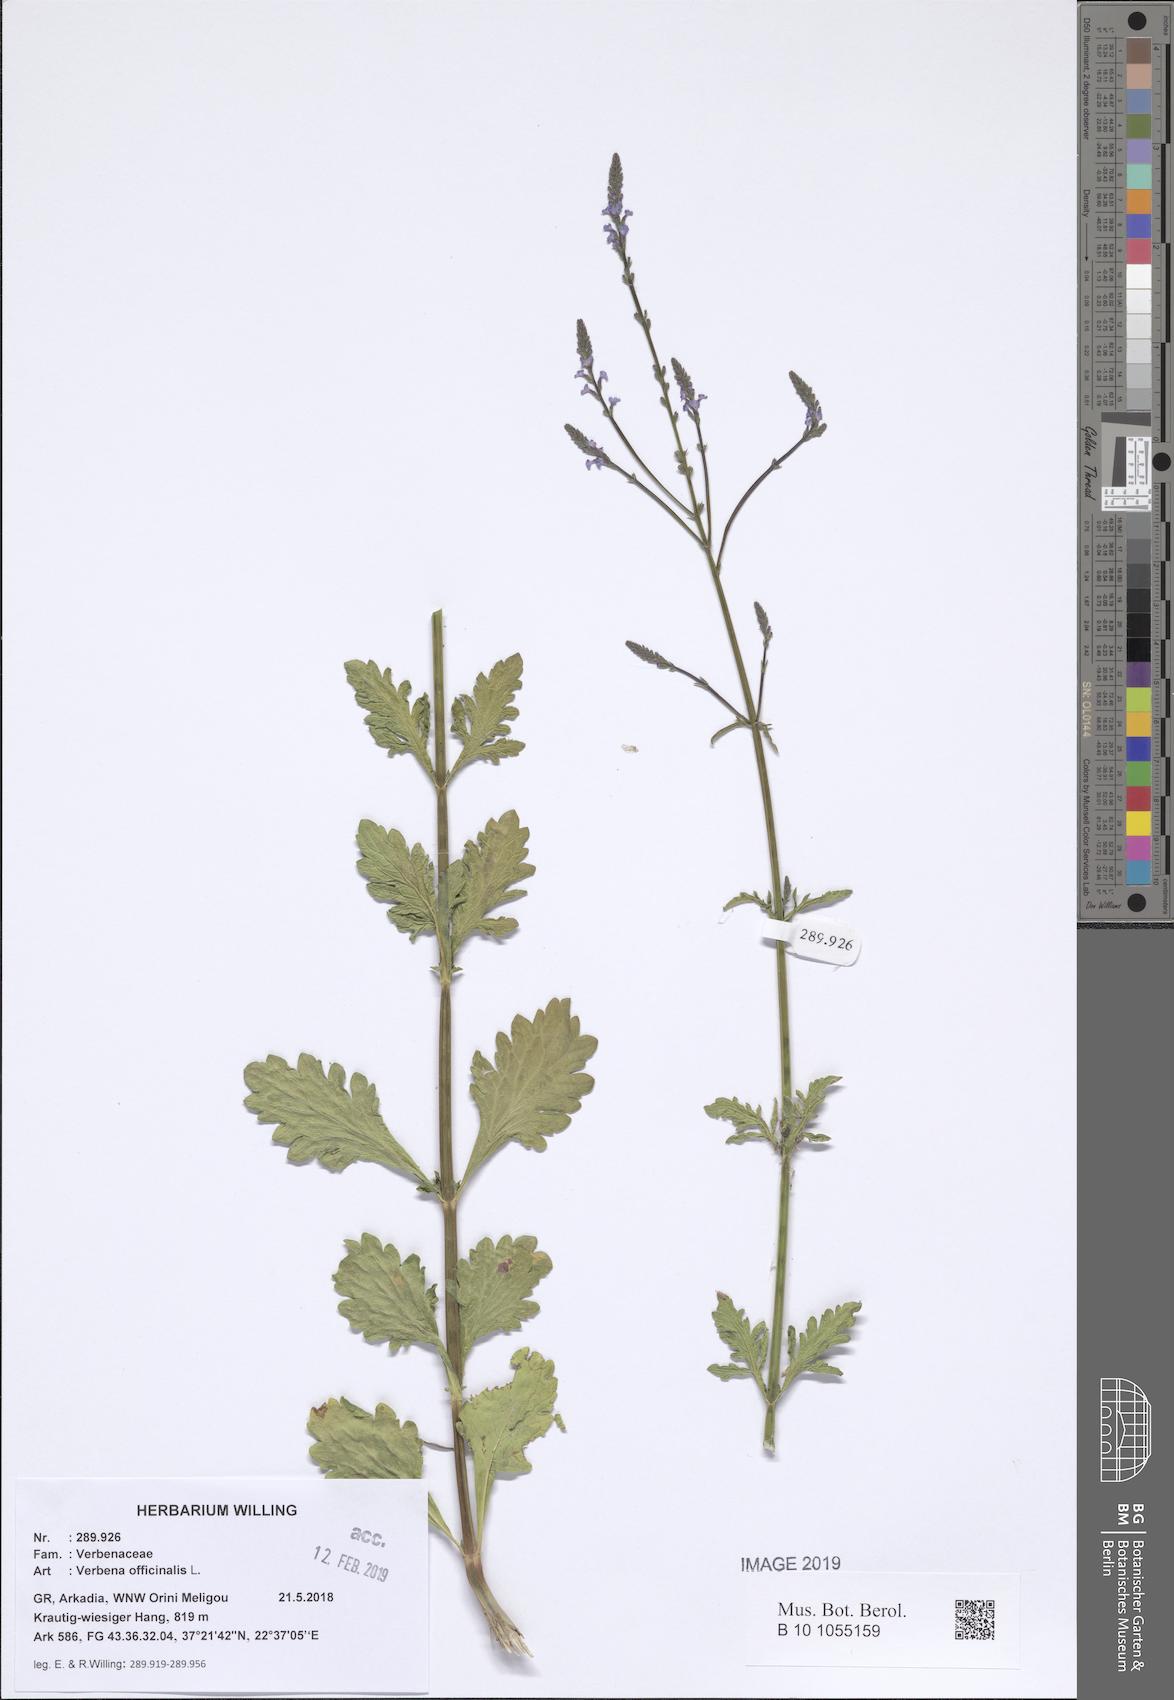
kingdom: Plantae
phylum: Tracheophyta
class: Magnoliopsida
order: Lamiales
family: Verbenaceae
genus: Verbena
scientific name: Verbena officinalis
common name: Vervain
